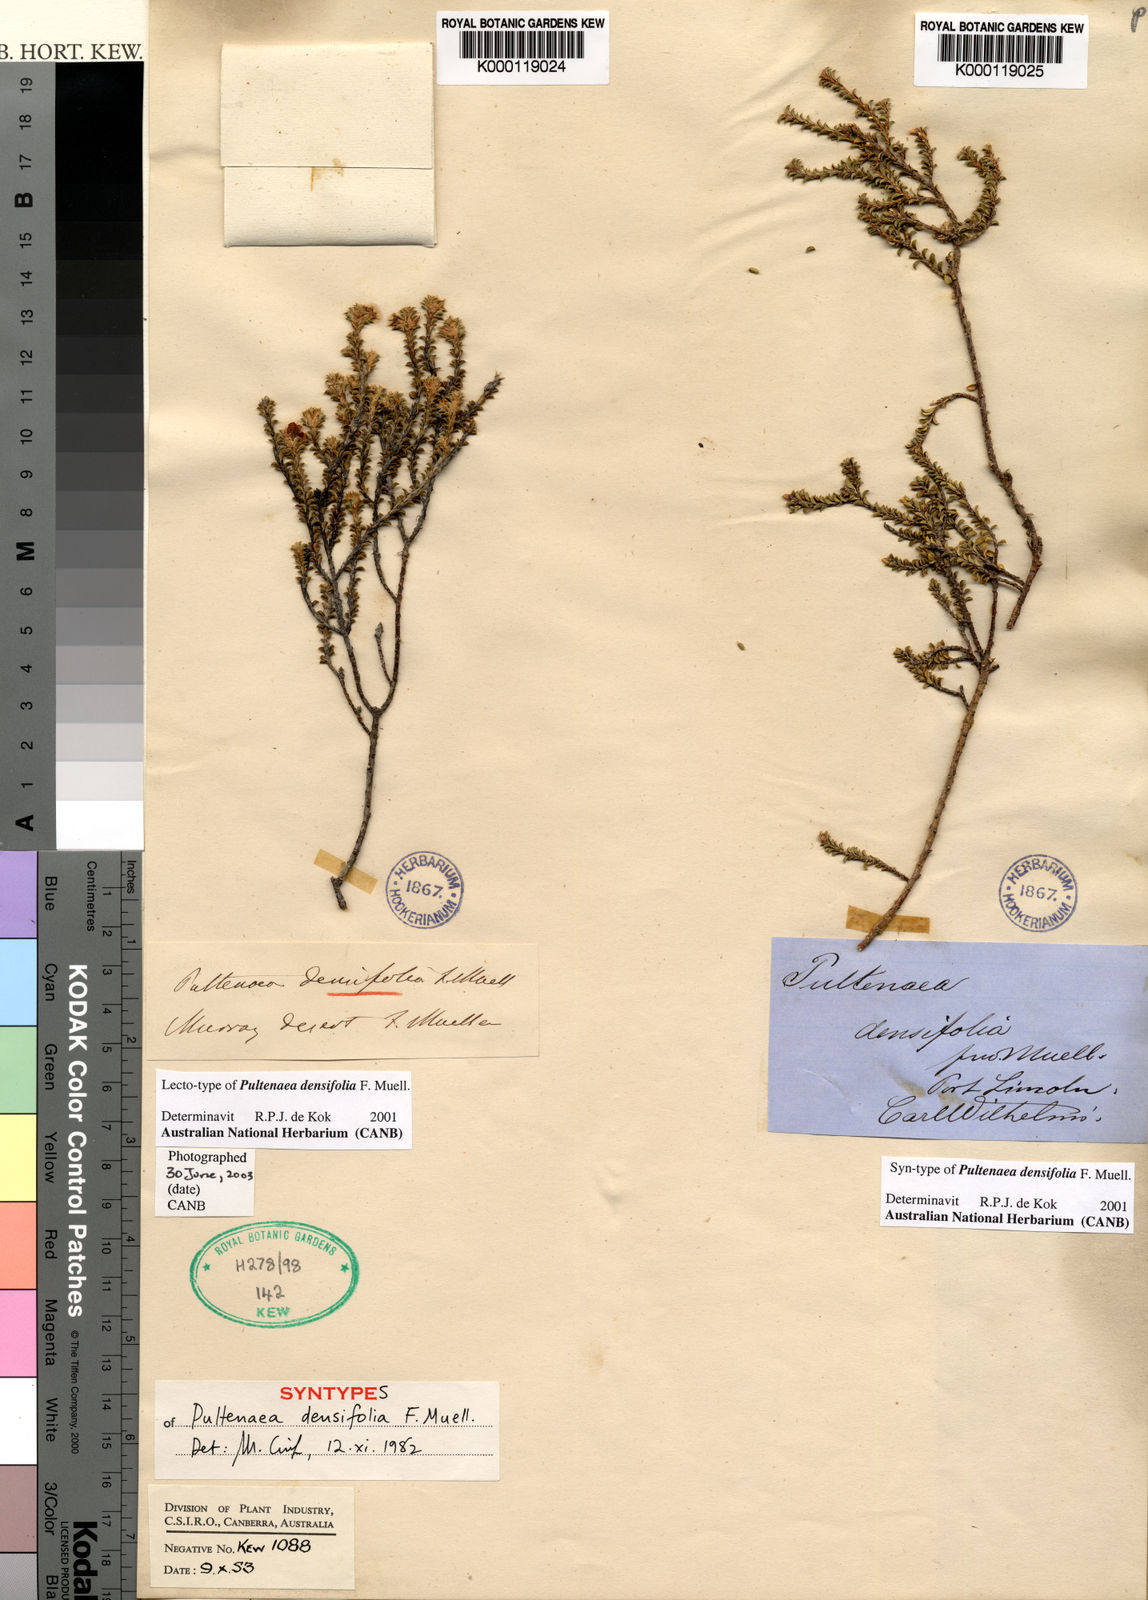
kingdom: Plantae
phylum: Tracheophyta
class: Magnoliopsida
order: Fabales
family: Fabaceae
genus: Pultenaea
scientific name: Pultenaea densifolia
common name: Dense-leaf bush-pea
